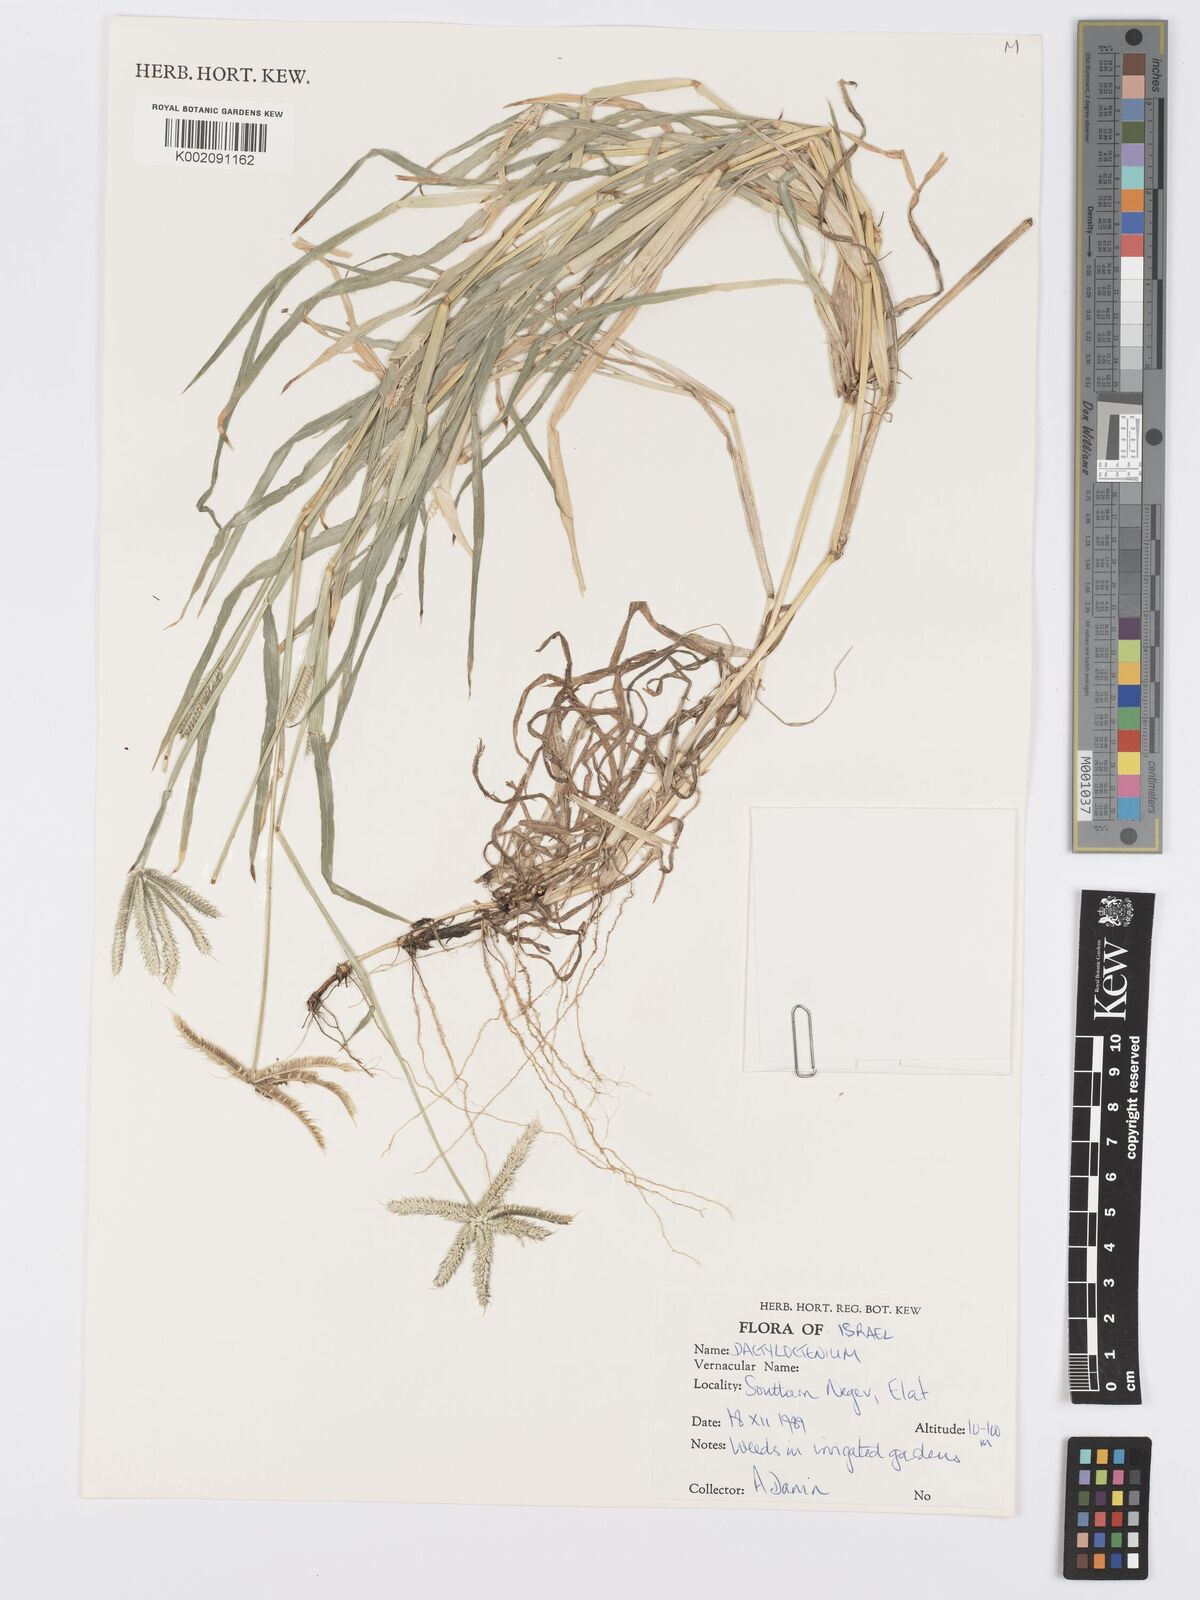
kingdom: Plantae
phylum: Tracheophyta
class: Liliopsida
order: Poales
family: Poaceae
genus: Dactyloctenium
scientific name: Dactyloctenium
